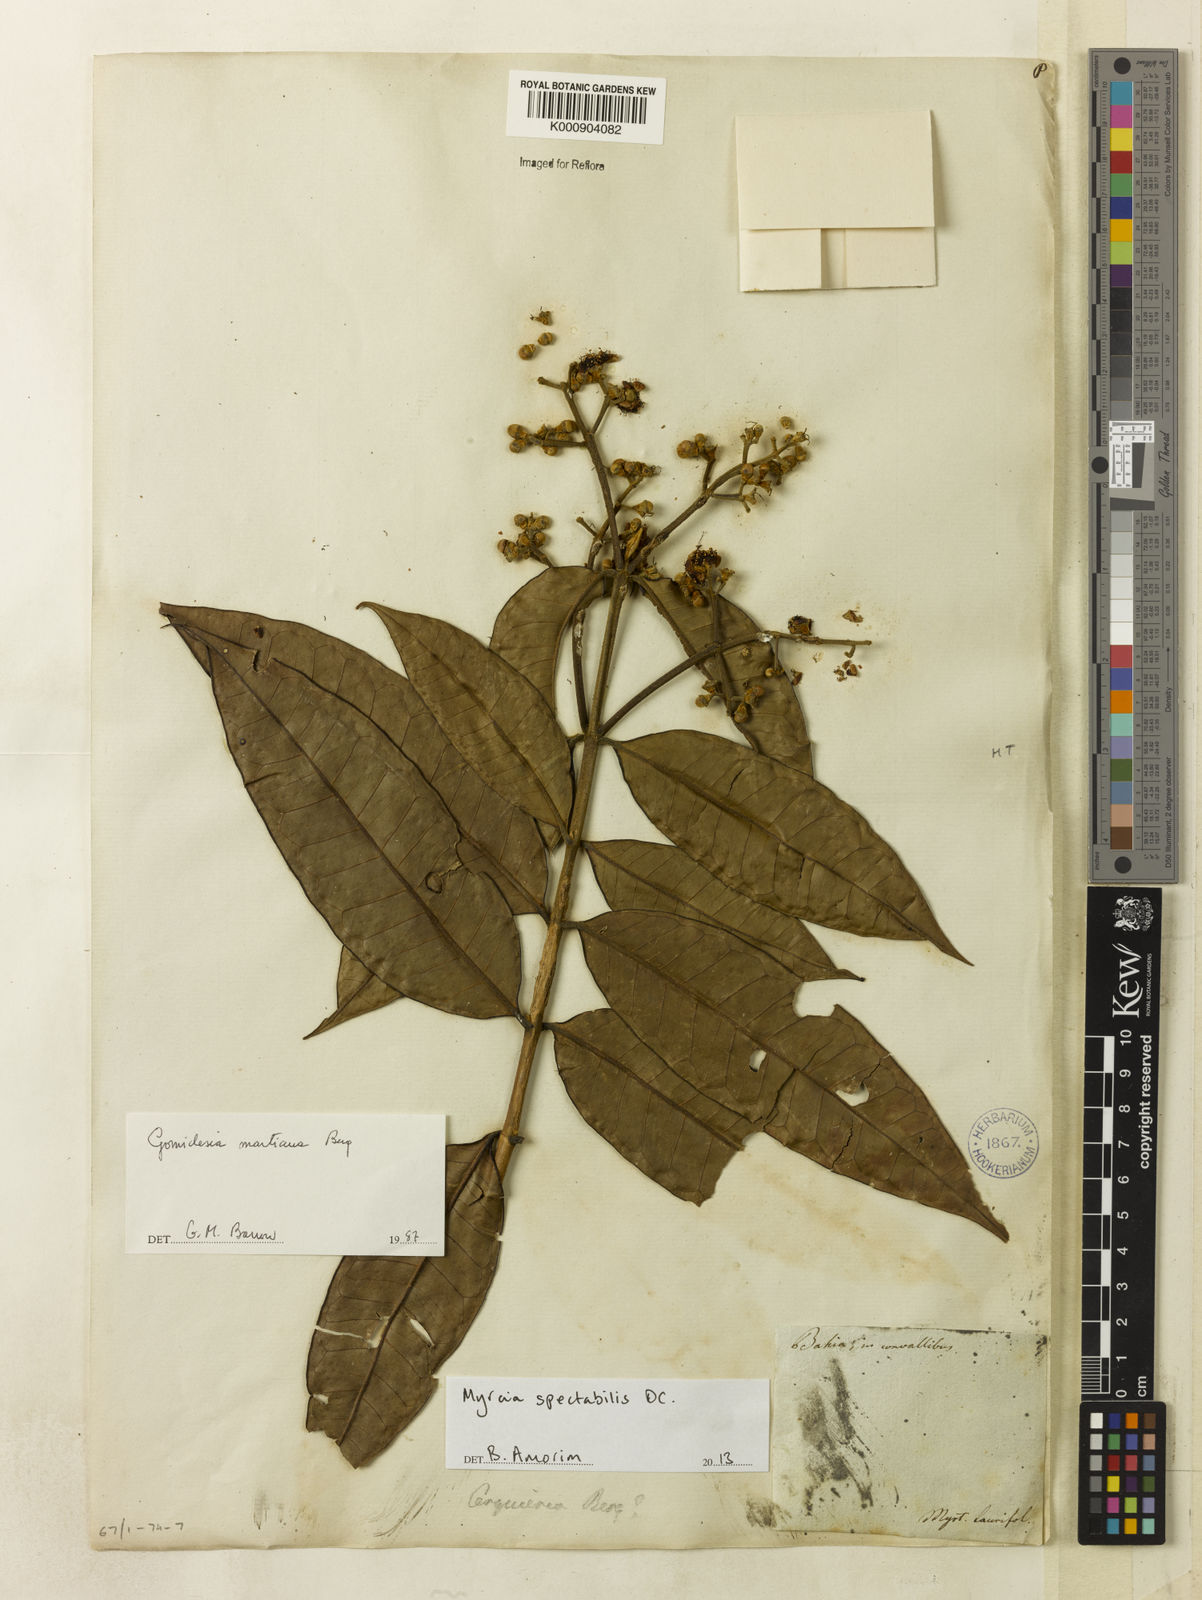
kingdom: Plantae
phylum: Tracheophyta
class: Magnoliopsida
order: Myrtales
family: Myrtaceae
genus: Myrcia
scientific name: Myrcia springiana
